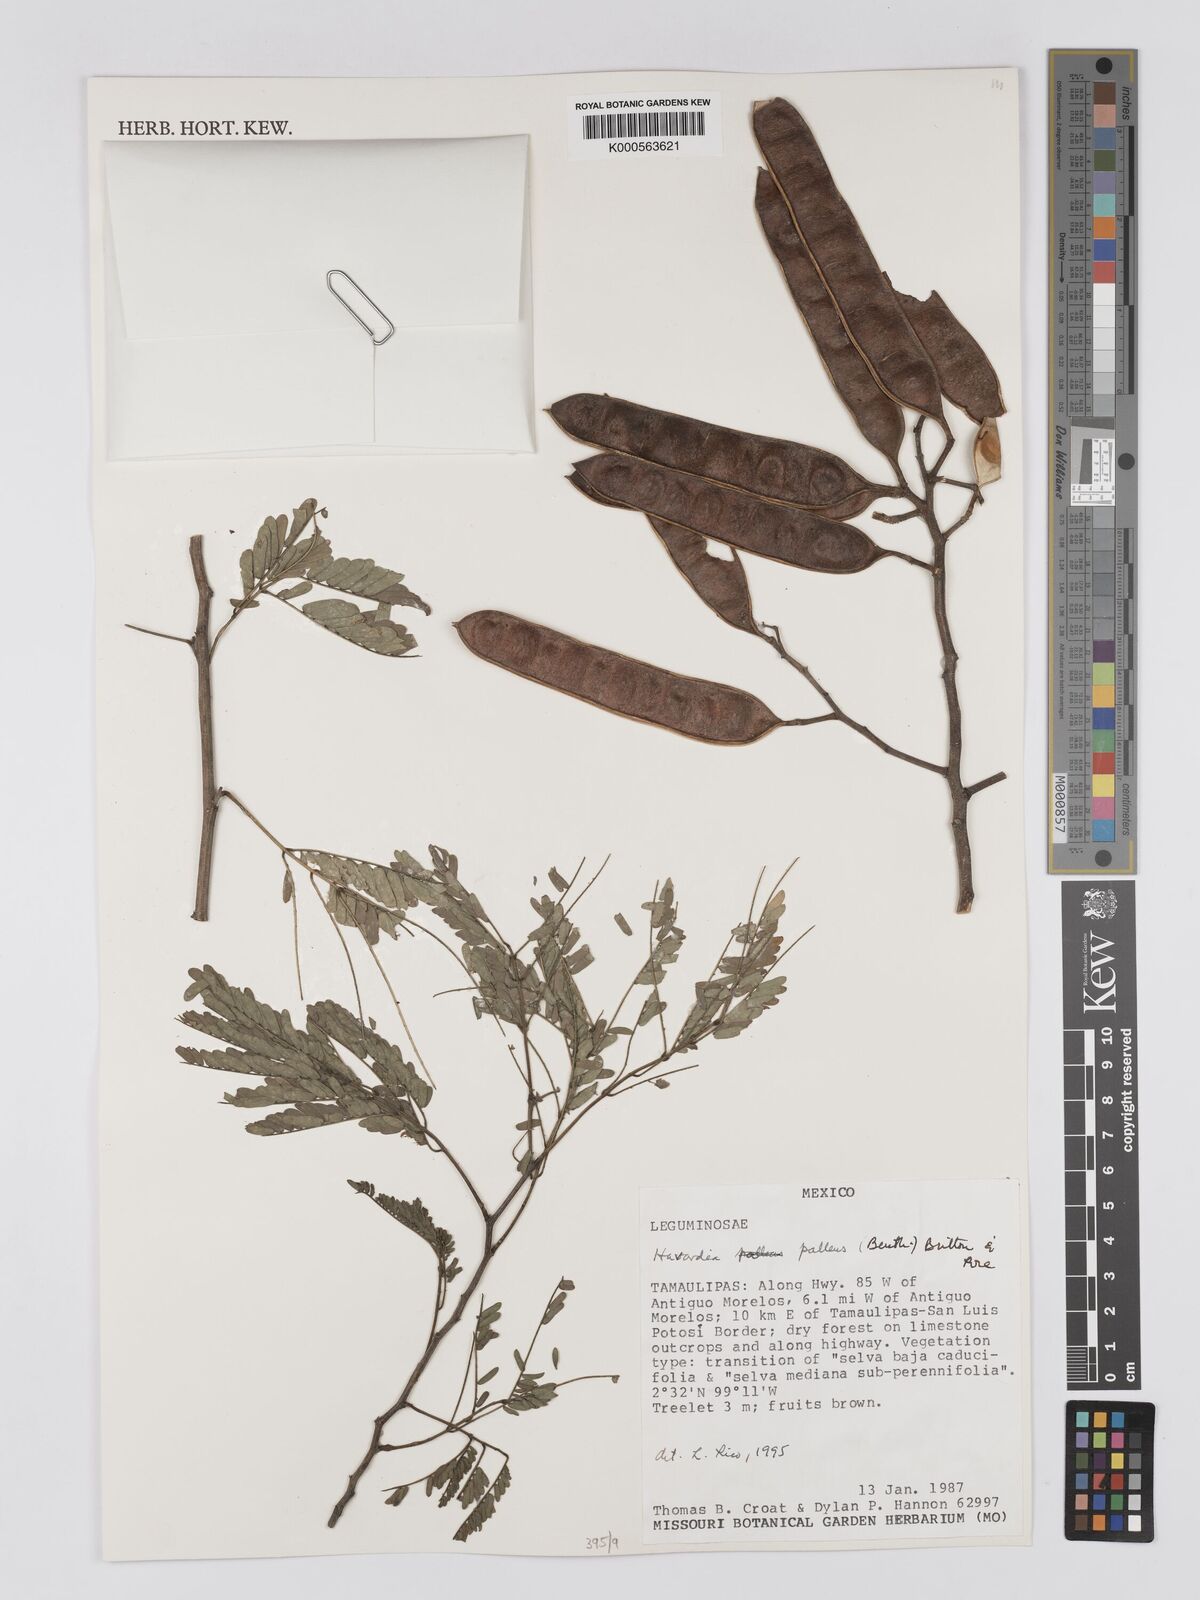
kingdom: Plantae
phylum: Tracheophyta
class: Magnoliopsida
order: Fabales
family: Fabaceae
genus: Havardia
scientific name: Havardia pallens
